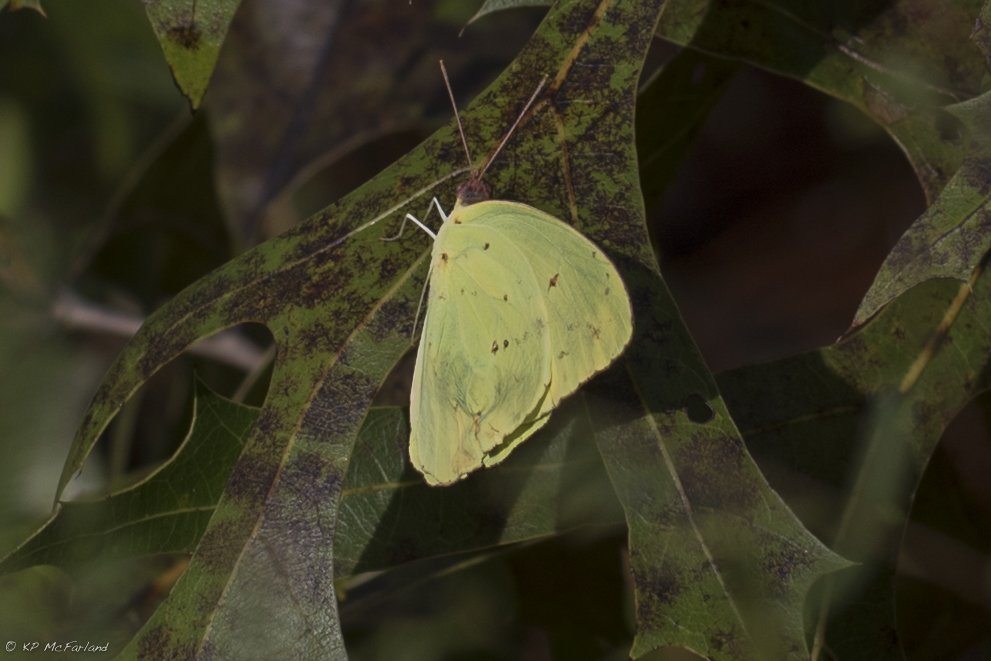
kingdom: Animalia
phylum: Arthropoda
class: Insecta
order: Lepidoptera
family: Pieridae
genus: Phoebis
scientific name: Phoebis sennae
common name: Cloudless Sulphur
